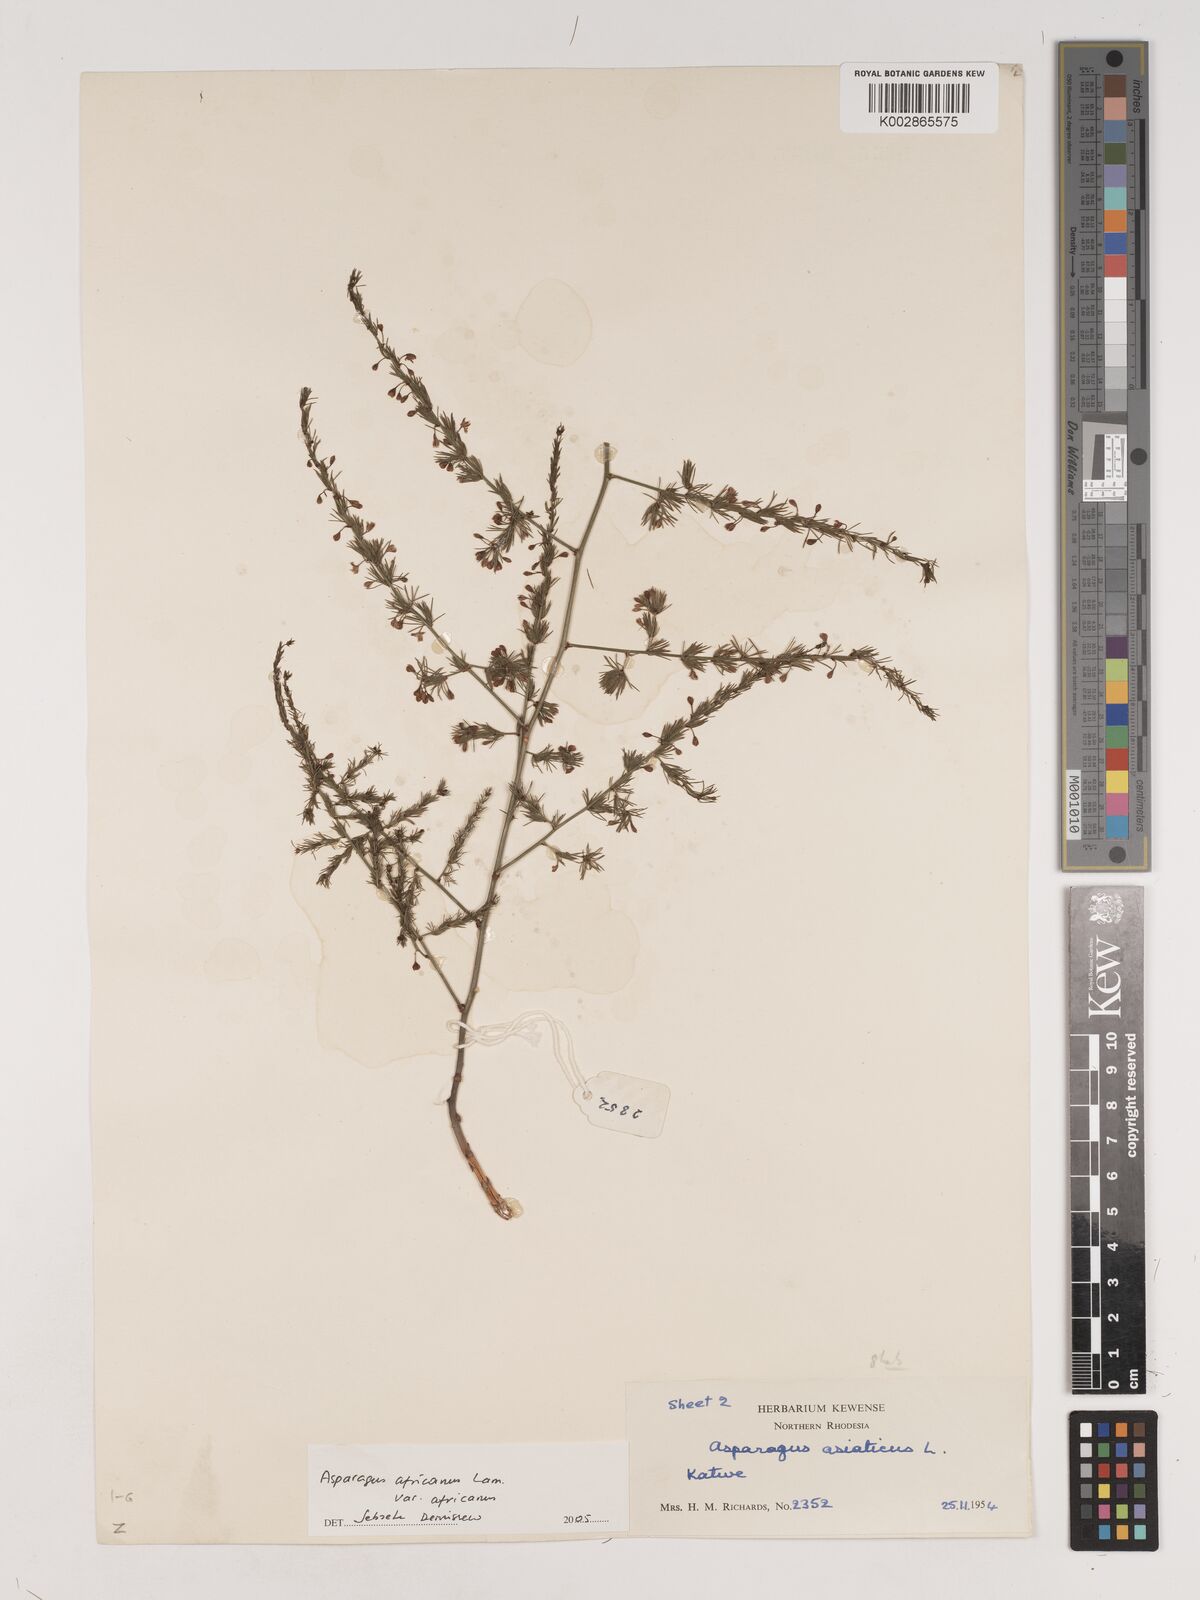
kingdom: Plantae
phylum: Tracheophyta
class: Liliopsida
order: Asparagales
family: Asparagaceae
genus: Asparagus
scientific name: Asparagus
